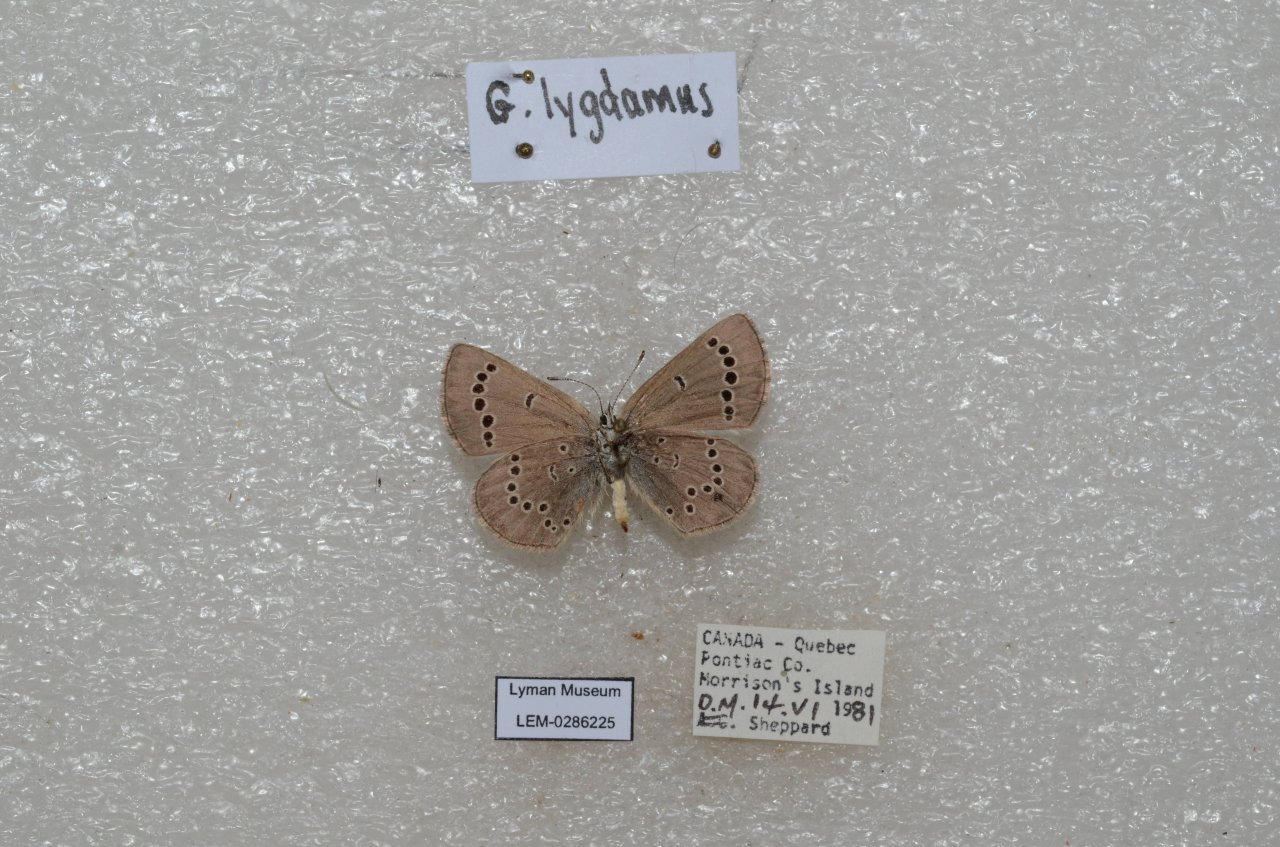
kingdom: Animalia
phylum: Arthropoda
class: Insecta
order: Lepidoptera
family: Lycaenidae
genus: Glaucopsyche
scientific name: Glaucopsyche lygdamus
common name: Silvery Blue
